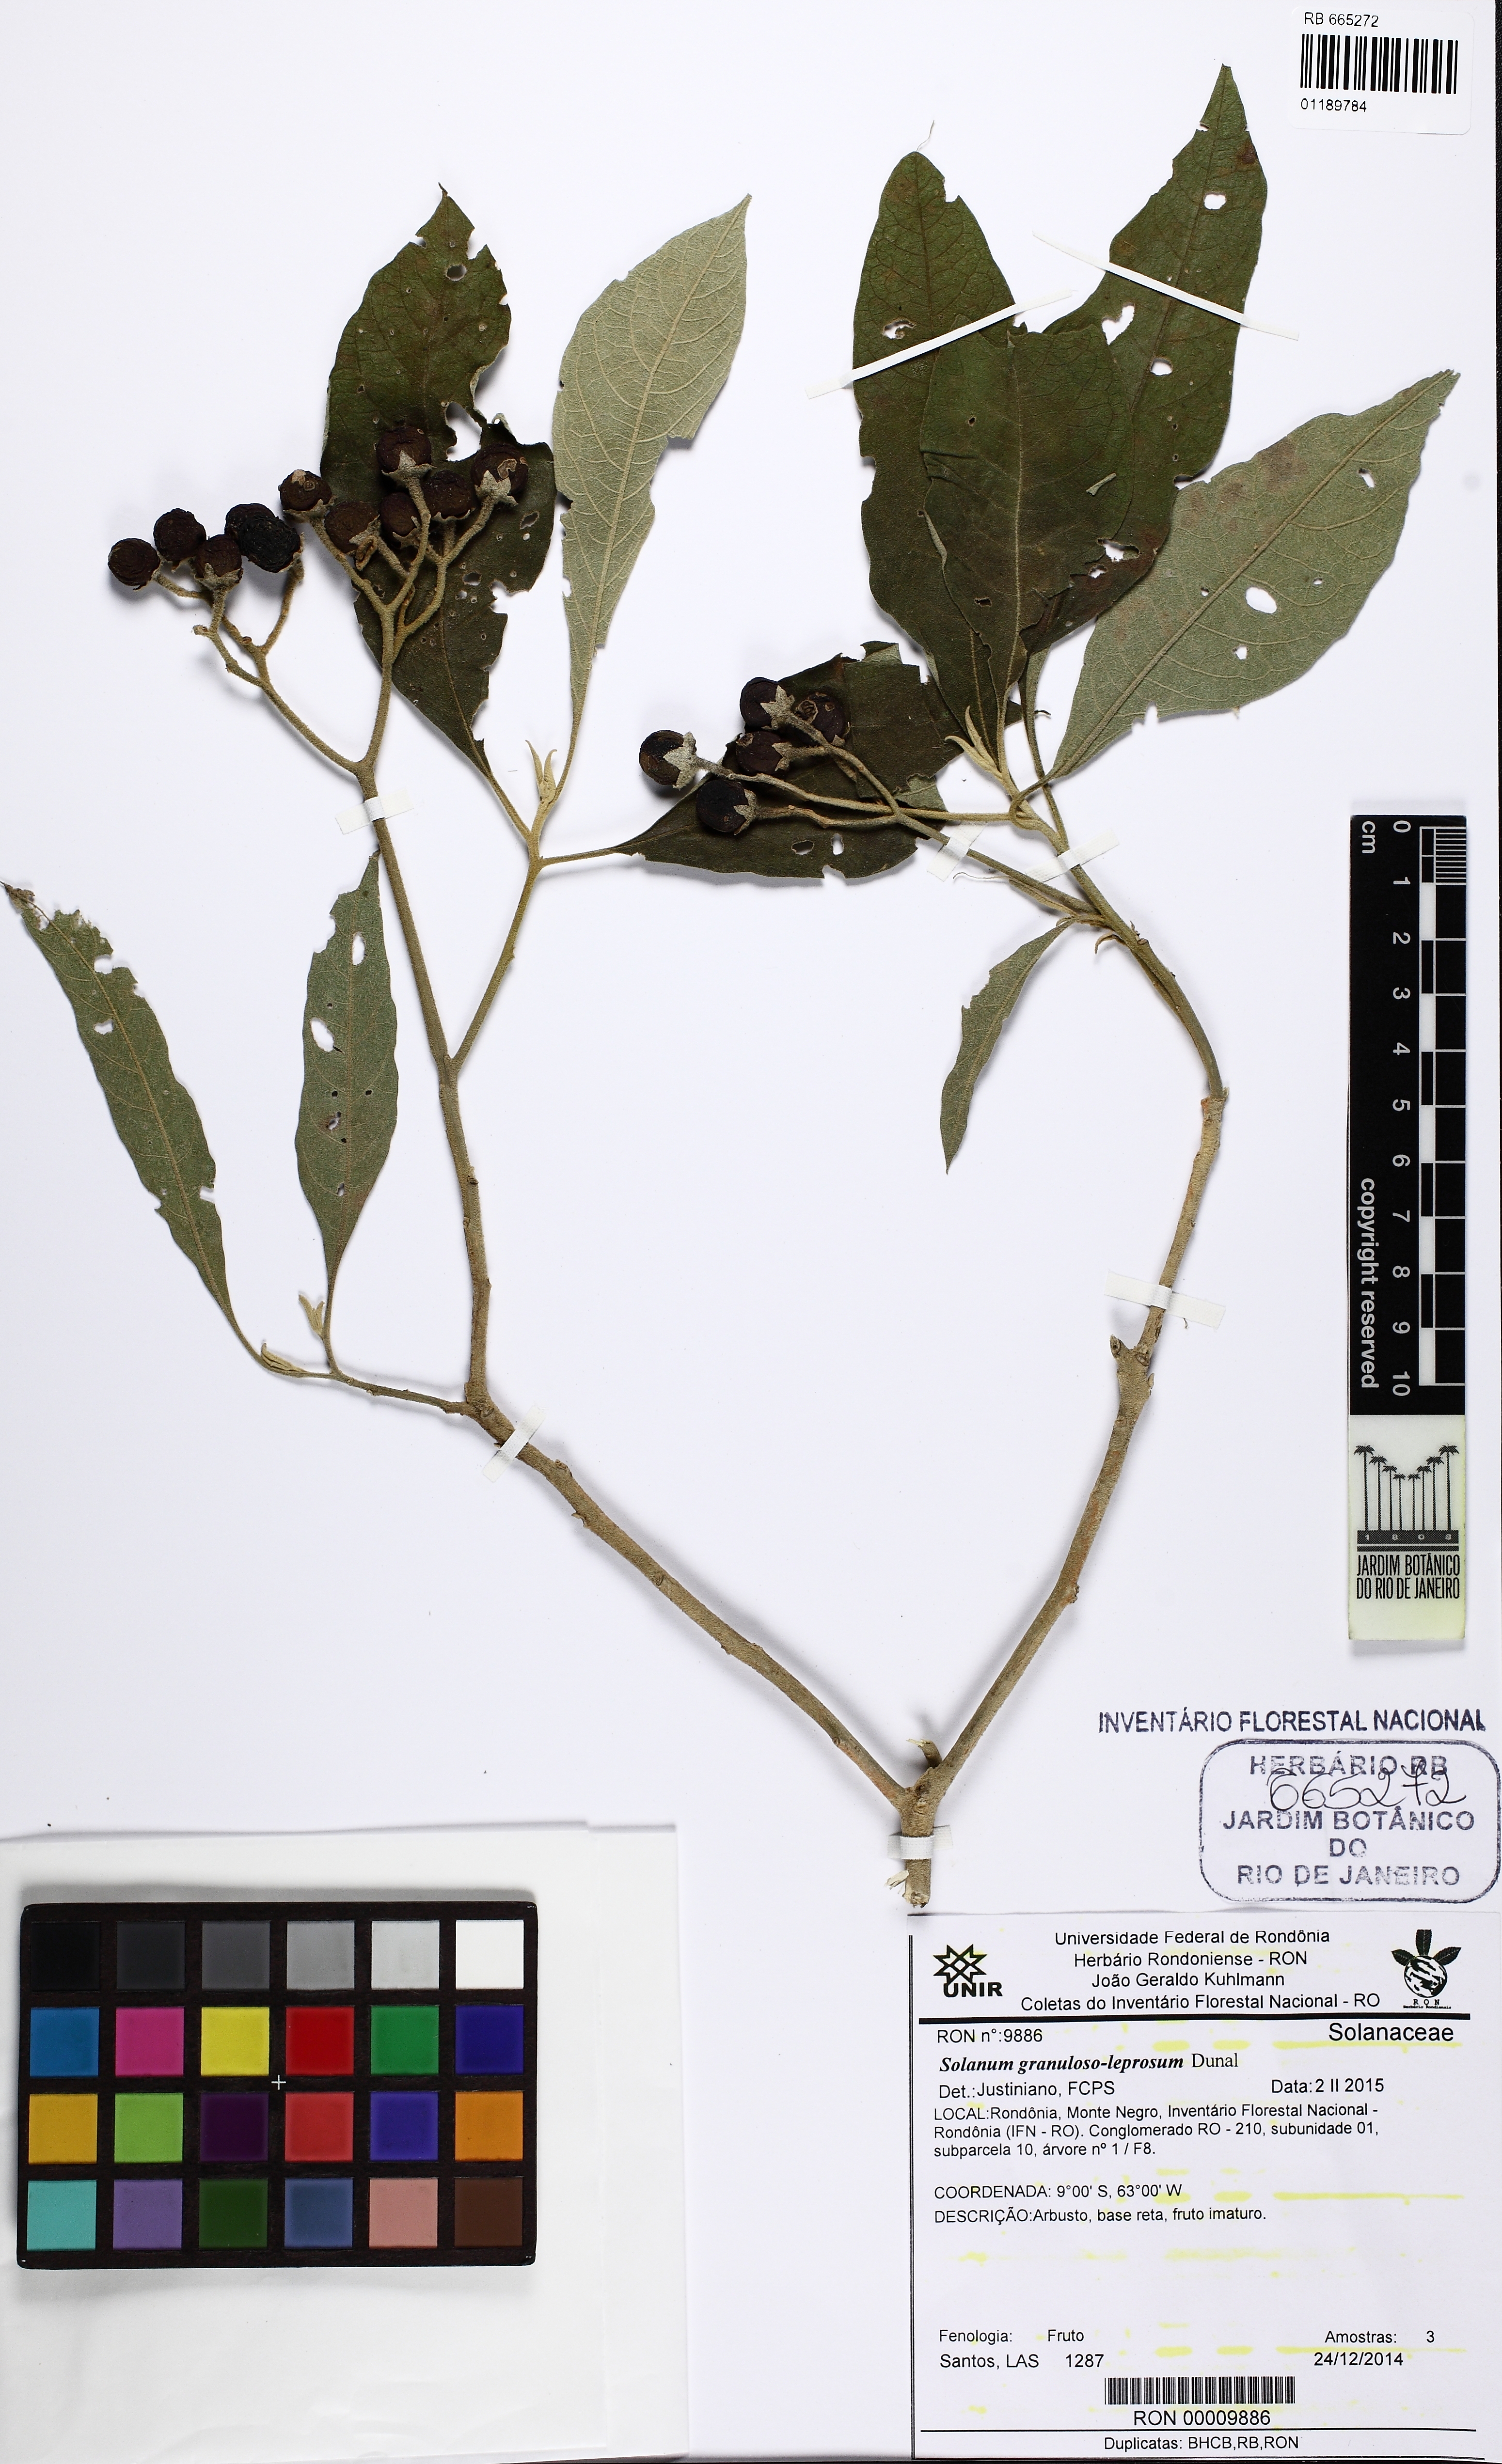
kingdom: Plantae
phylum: Tracheophyta
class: Magnoliopsida
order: Solanales
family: Solanaceae
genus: Solanum
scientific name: Solanum granulosoleprosum
